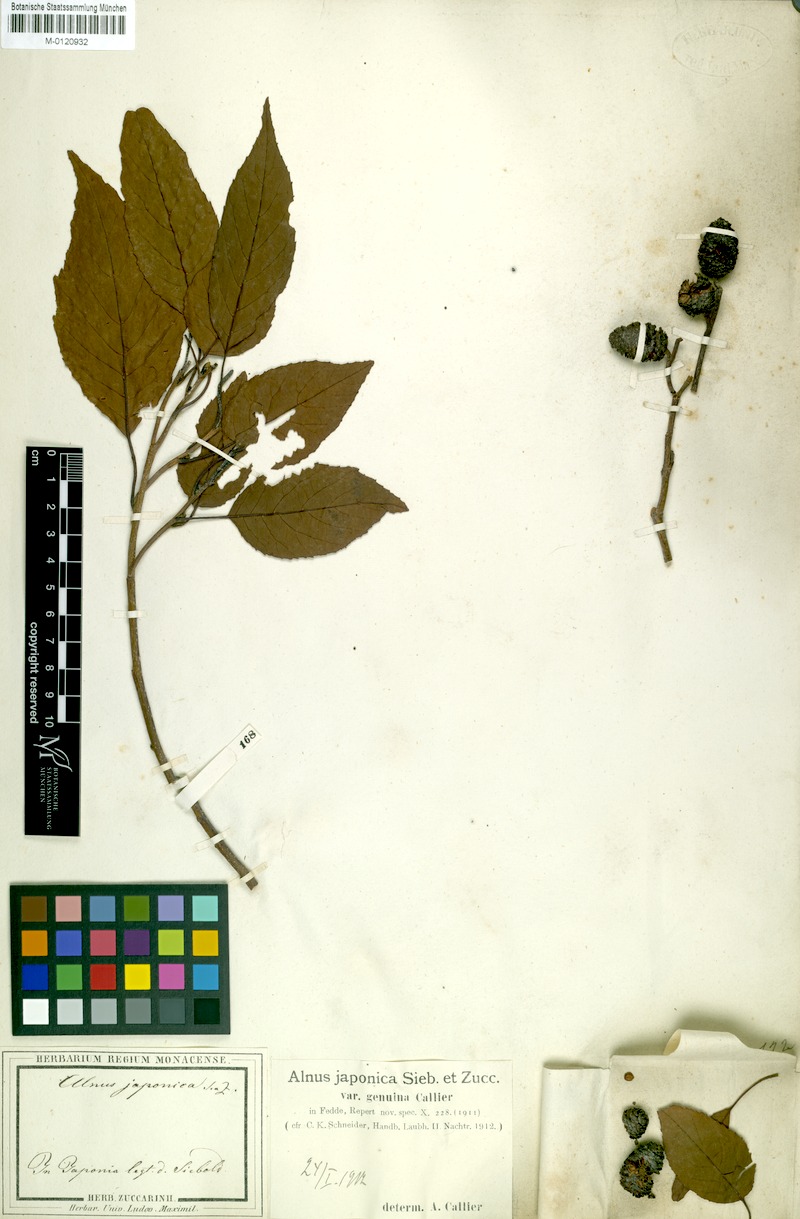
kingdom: Plantae
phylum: Tracheophyta
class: Magnoliopsida
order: Fagales
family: Betulaceae
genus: Alnus
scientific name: Alnus serrulatoides
